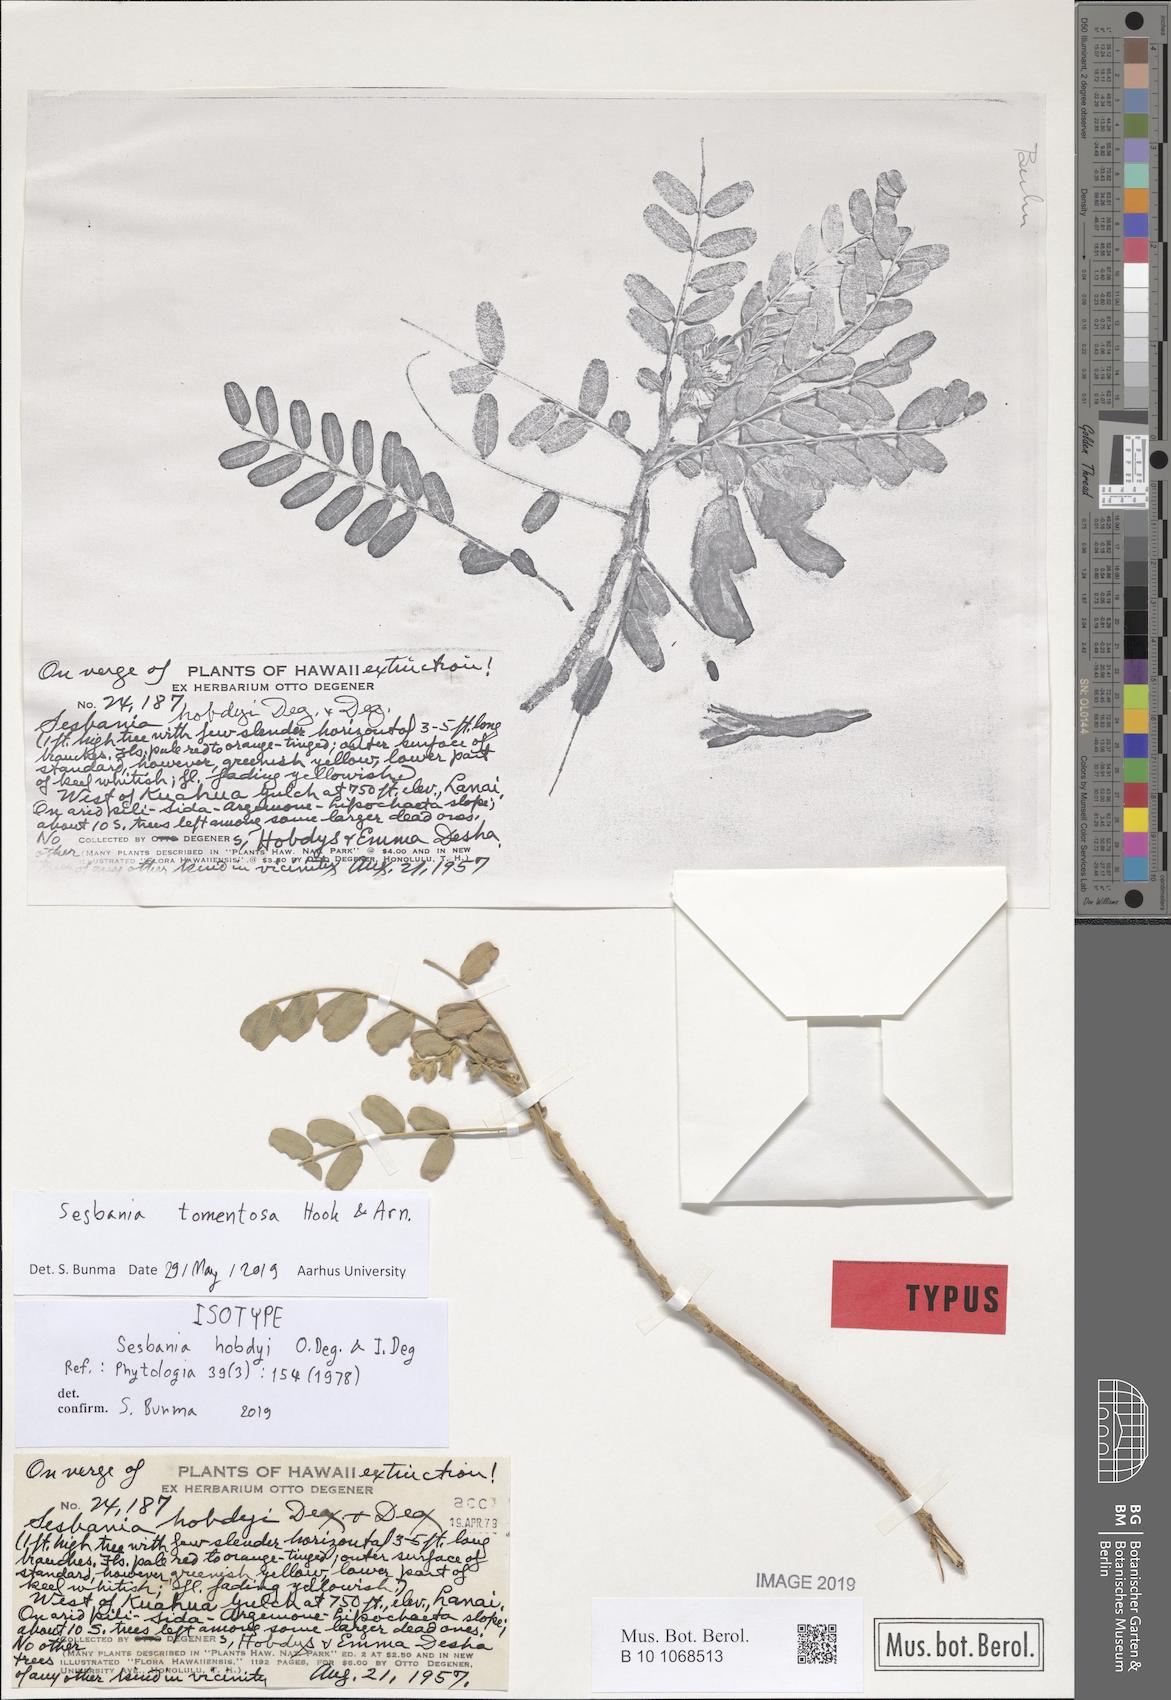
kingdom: Plantae
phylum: Tracheophyta
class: Magnoliopsida
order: Fabales
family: Fabaceae
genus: Sesbania
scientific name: Sesbania tomentosa
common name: `ohai
